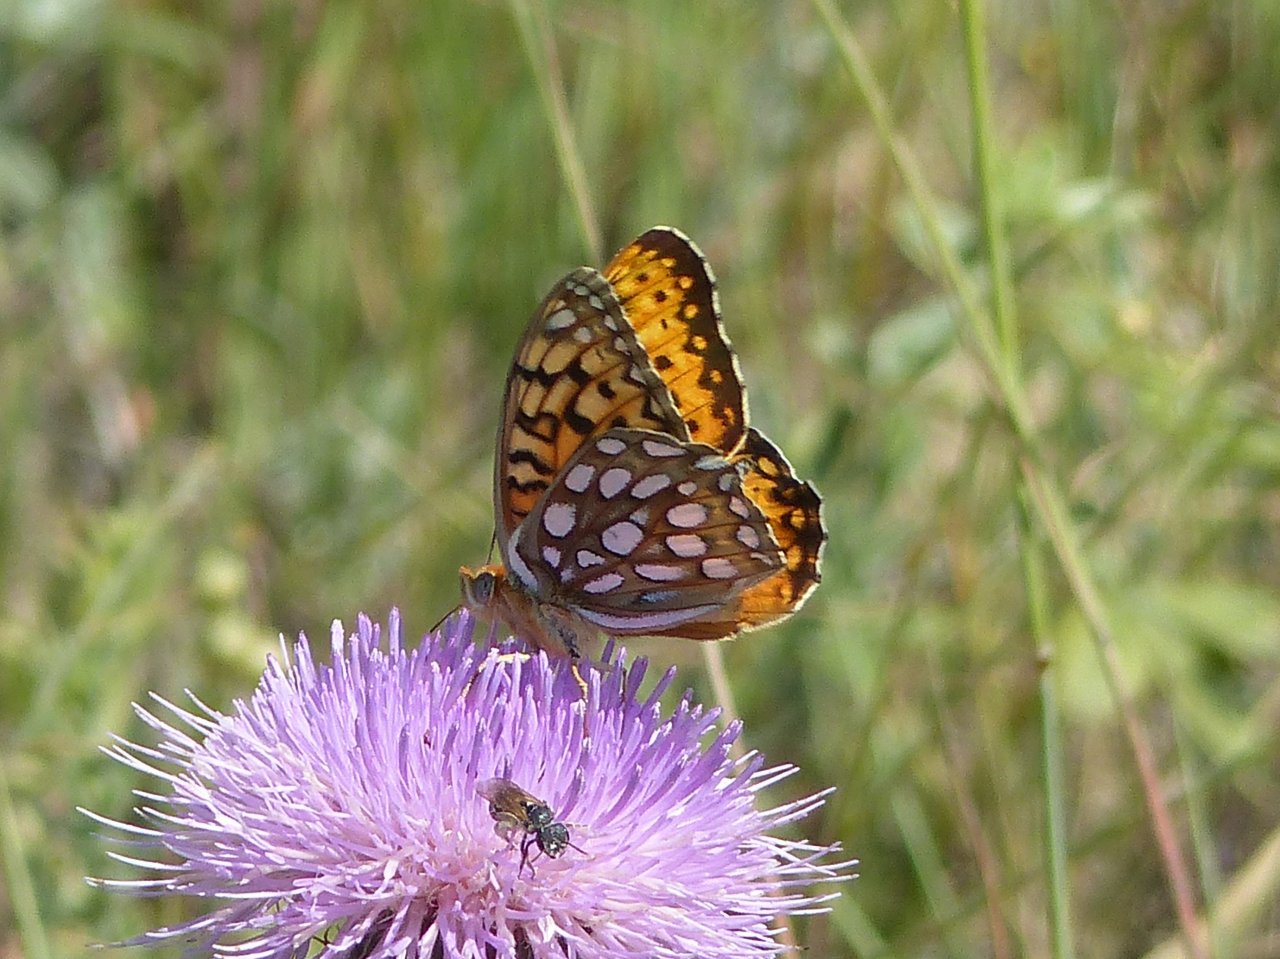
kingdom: Animalia
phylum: Arthropoda
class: Insecta
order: Lepidoptera
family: Nymphalidae
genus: Speyeria
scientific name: Speyeria edwardsii
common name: Edwards' Fritillary
